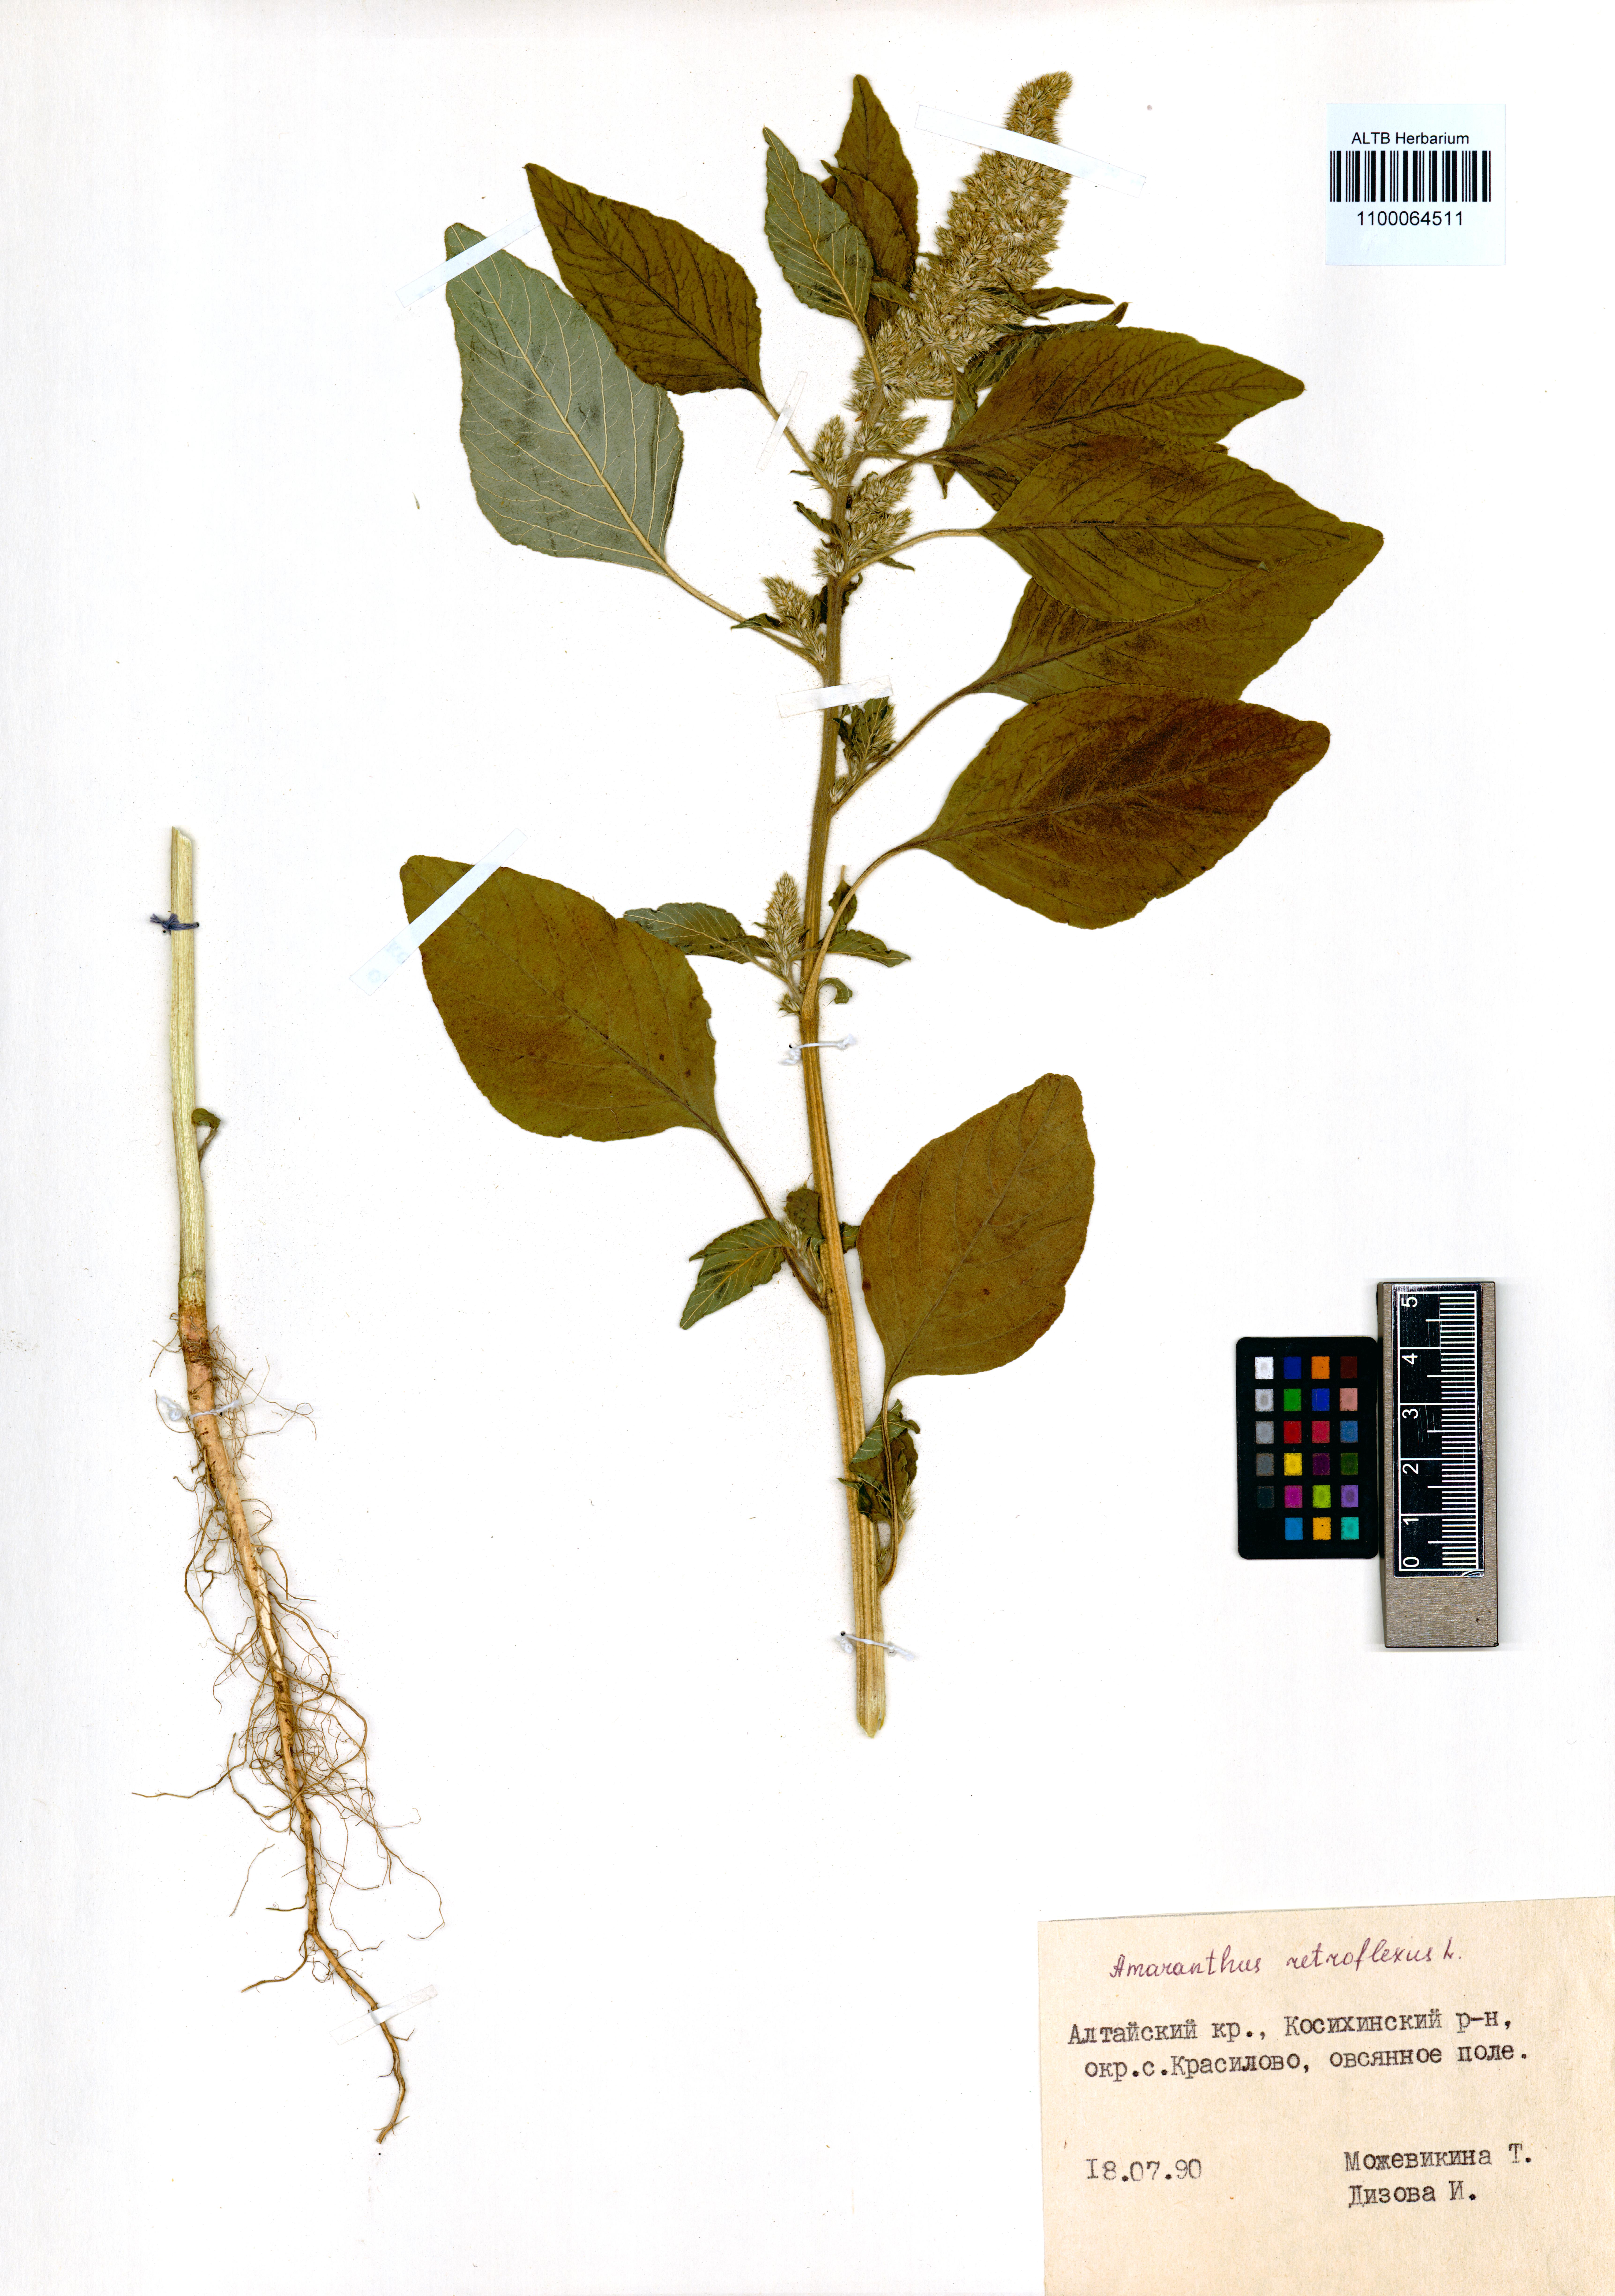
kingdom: Plantae
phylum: Tracheophyta
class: Magnoliopsida
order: Caryophyllales
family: Amaranthaceae
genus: Amaranthus
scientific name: Amaranthus retroflexus
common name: Redroot amaranth
